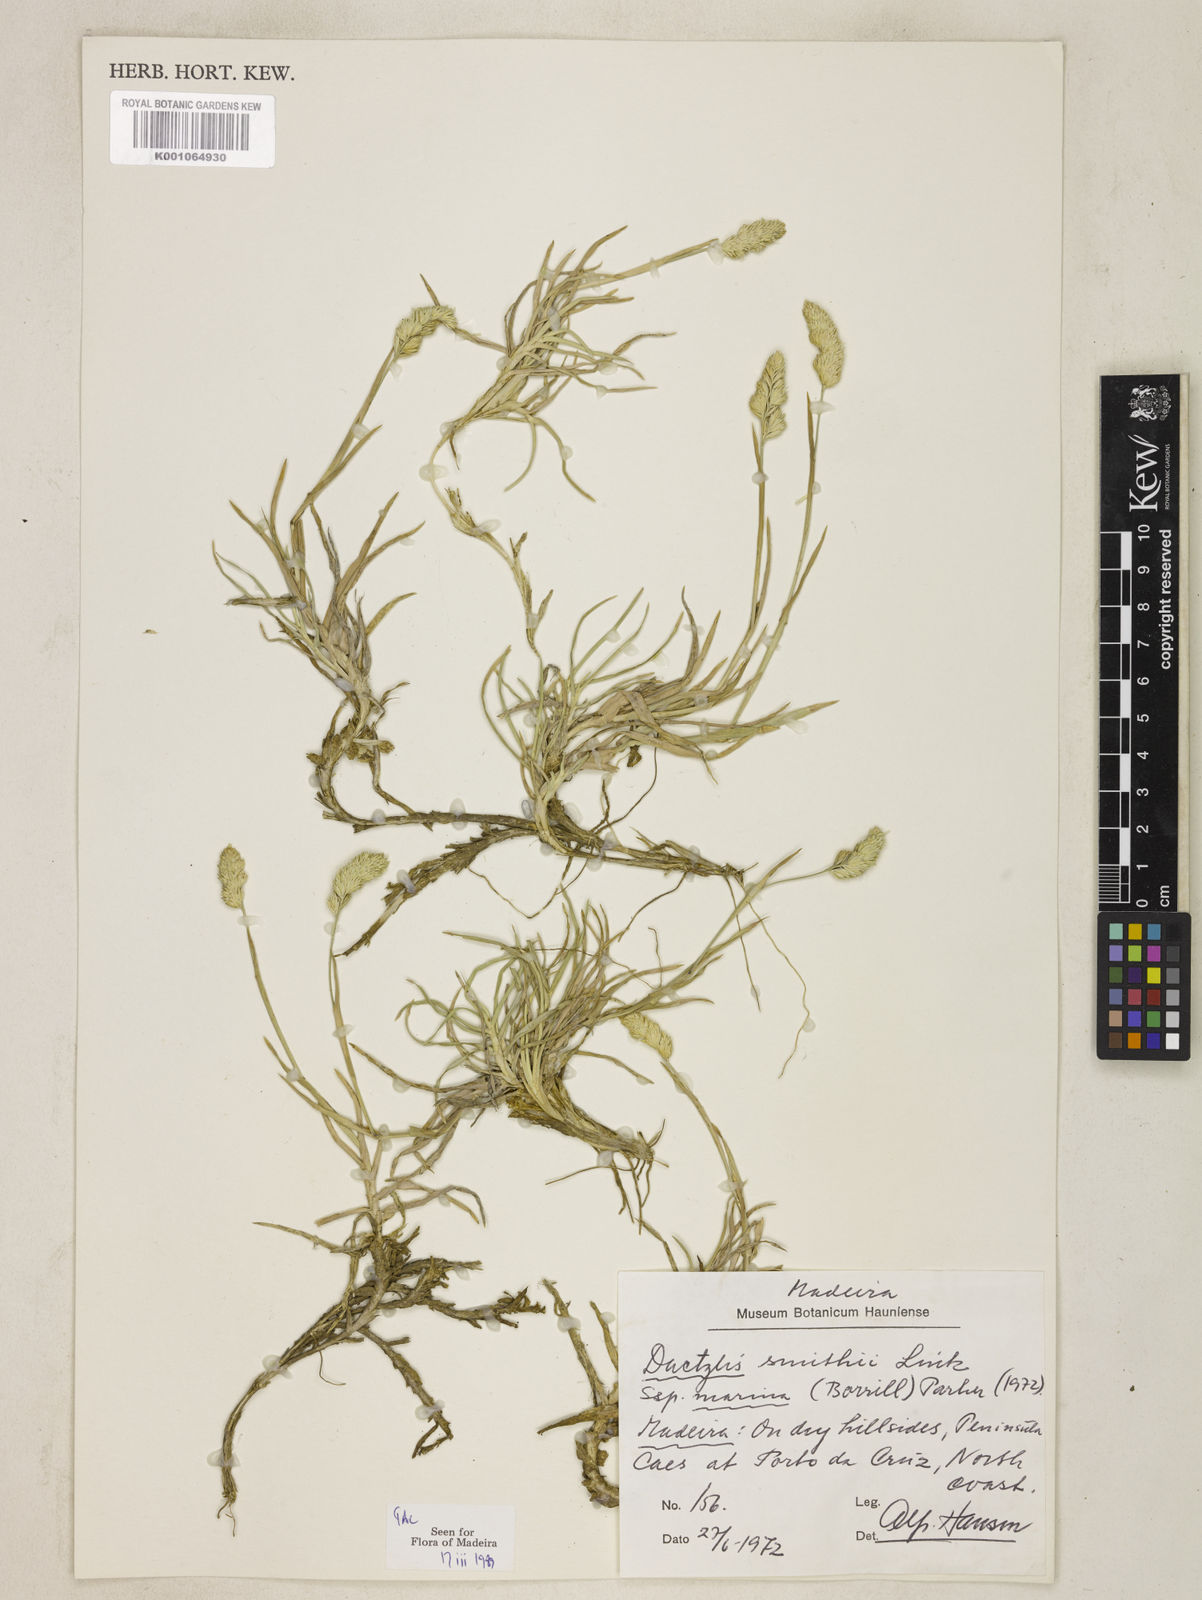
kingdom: Plantae
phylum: Tracheophyta
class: Liliopsida
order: Poales
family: Poaceae
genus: Dactylis
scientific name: Dactylis glomerata
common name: Orchardgrass
